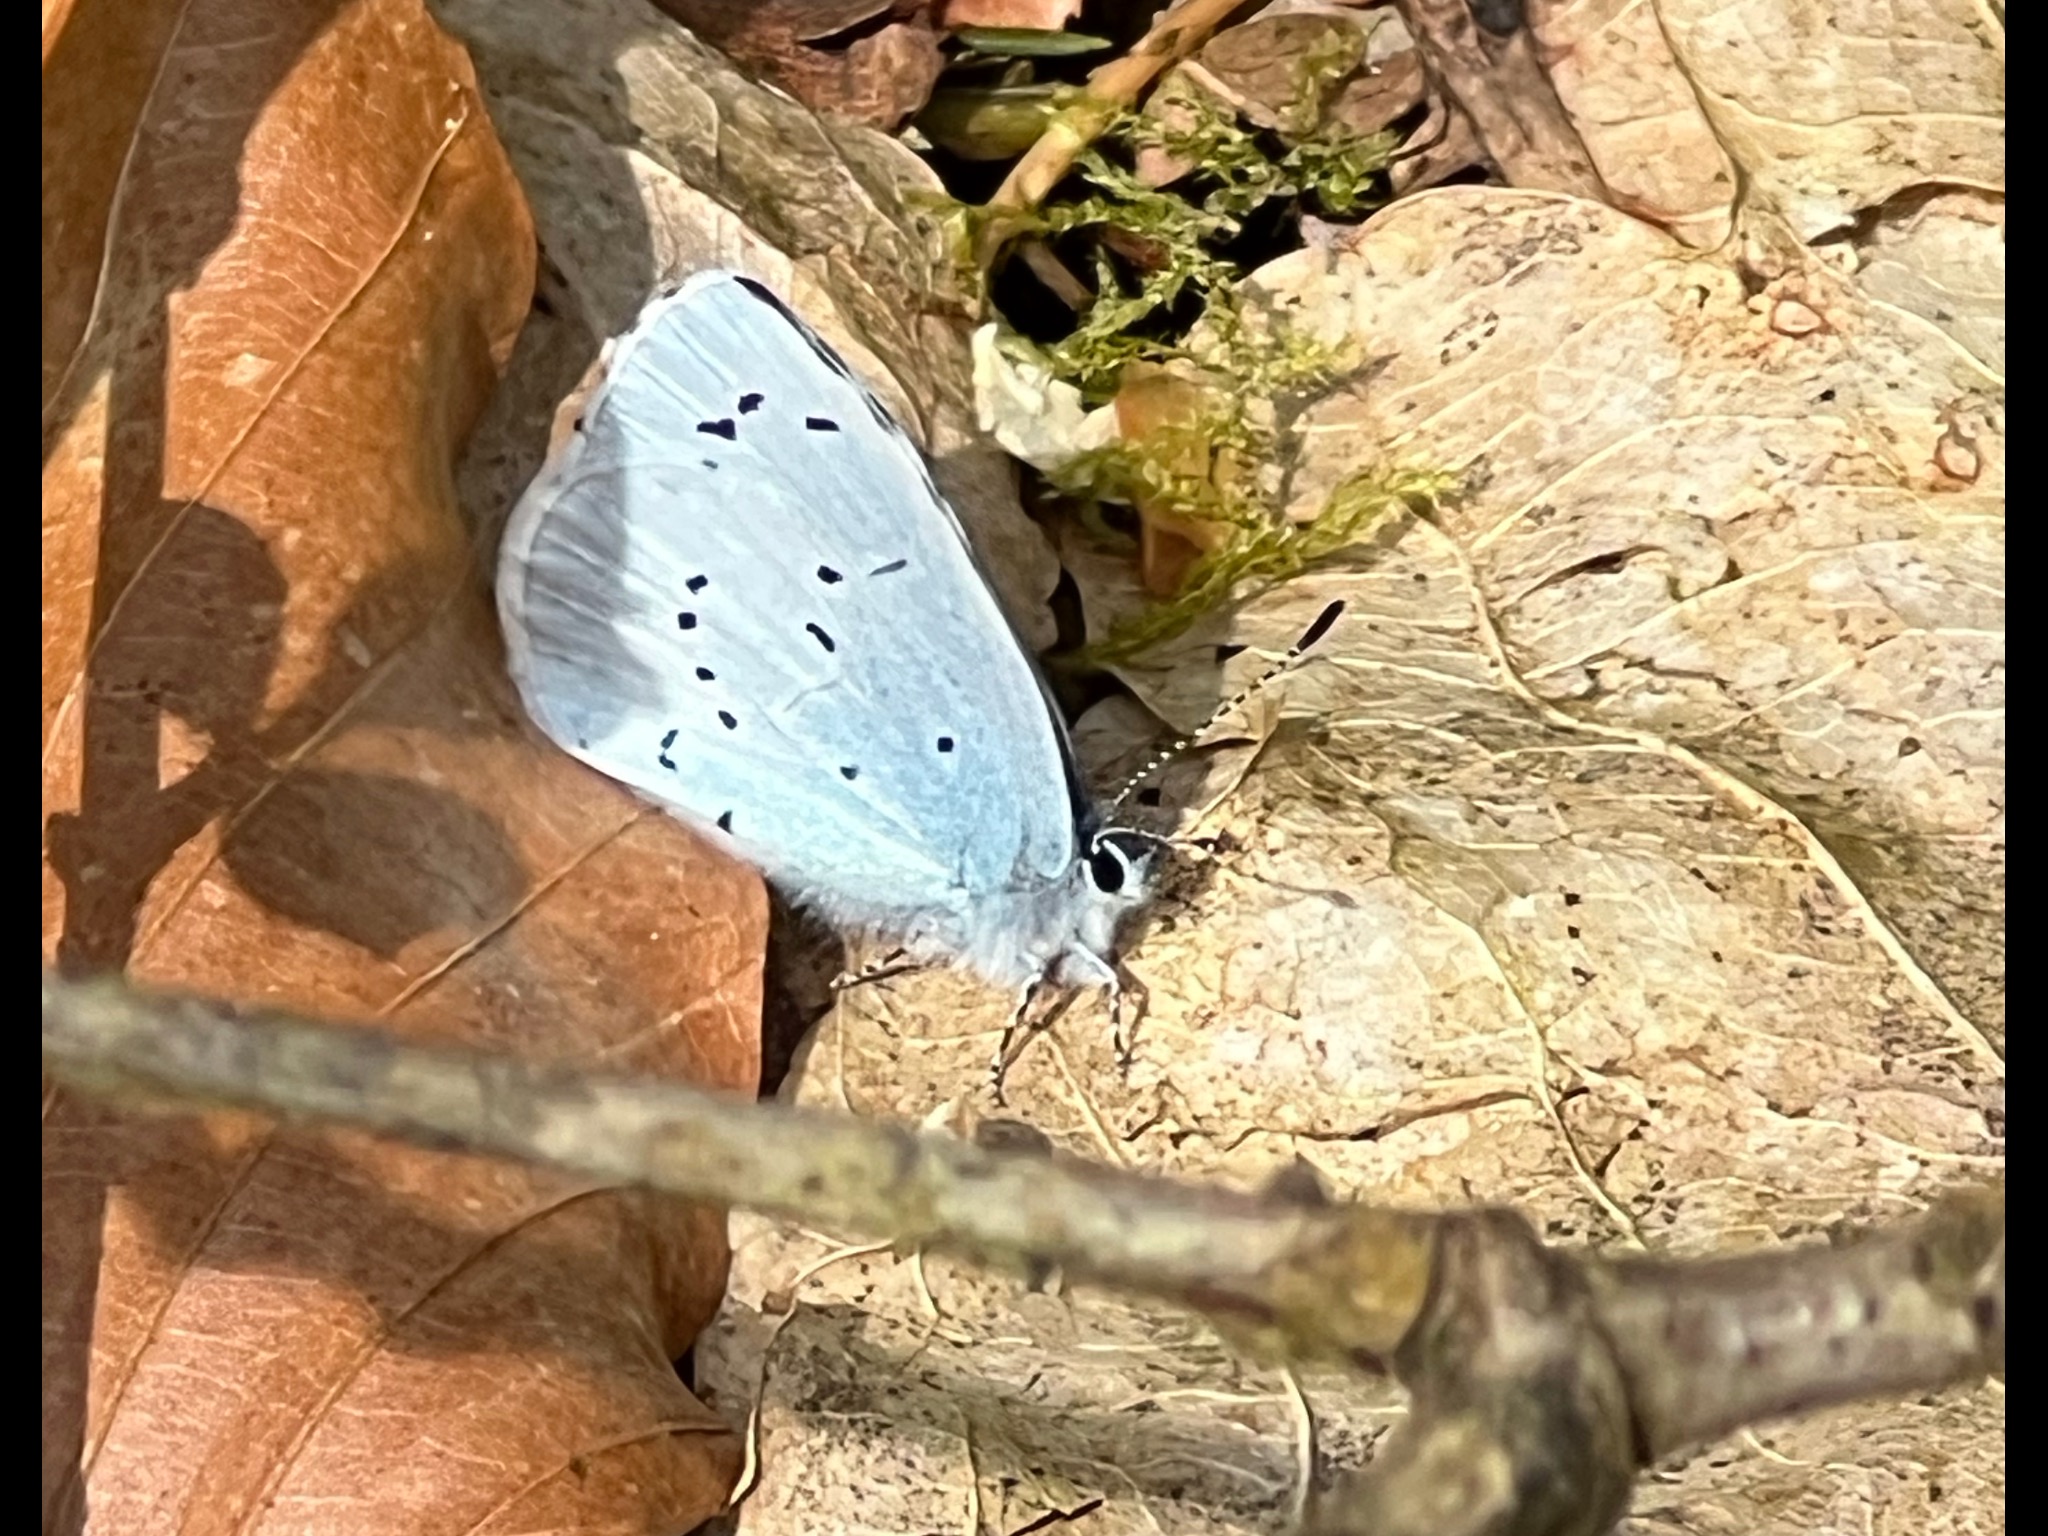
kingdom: Animalia
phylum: Arthropoda
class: Insecta
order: Lepidoptera
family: Lycaenidae
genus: Celastrina
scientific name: Celastrina argiolus
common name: Skovblåfugl
